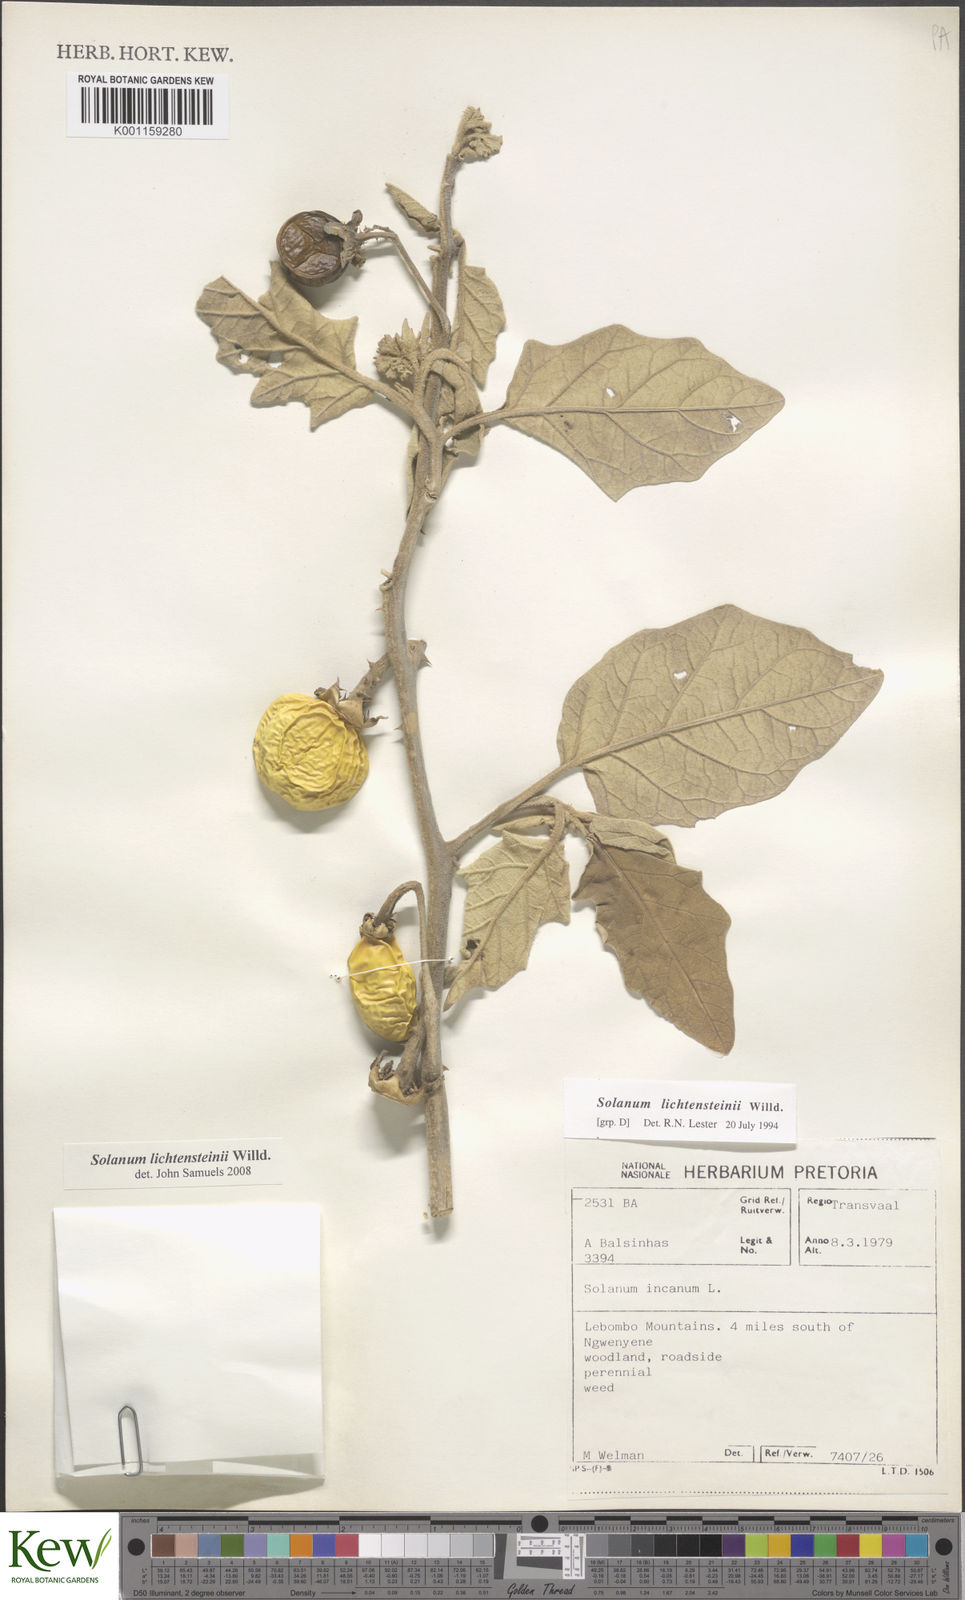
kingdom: Plantae
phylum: Tracheophyta
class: Magnoliopsida
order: Solanales
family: Solanaceae
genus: Solanum
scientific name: Solanum lichtensteinii
